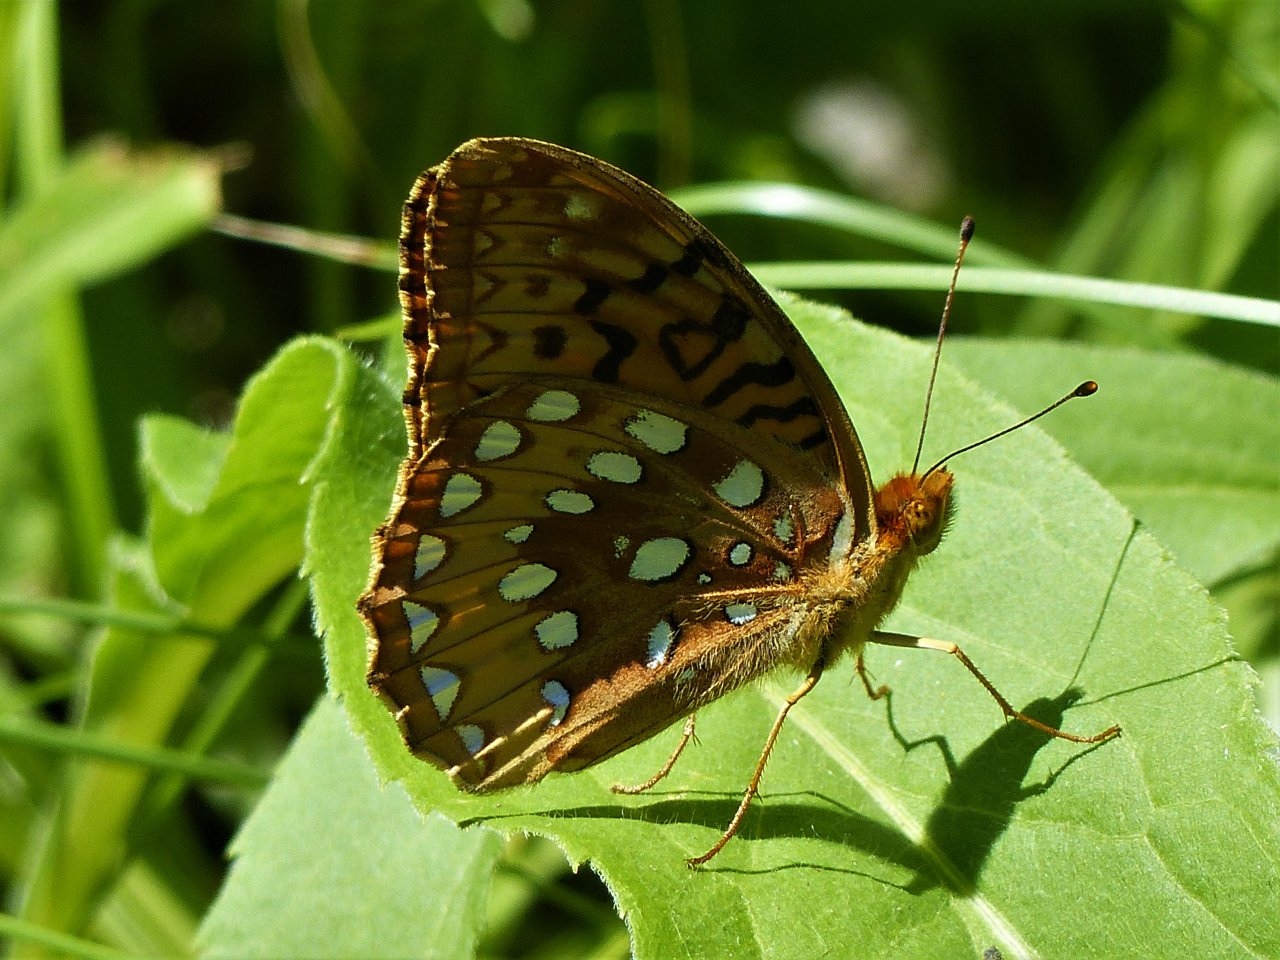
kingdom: Animalia
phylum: Arthropoda
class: Insecta
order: Lepidoptera
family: Nymphalidae
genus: Speyeria
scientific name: Speyeria cybele
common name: Great Spangled Fritillary
